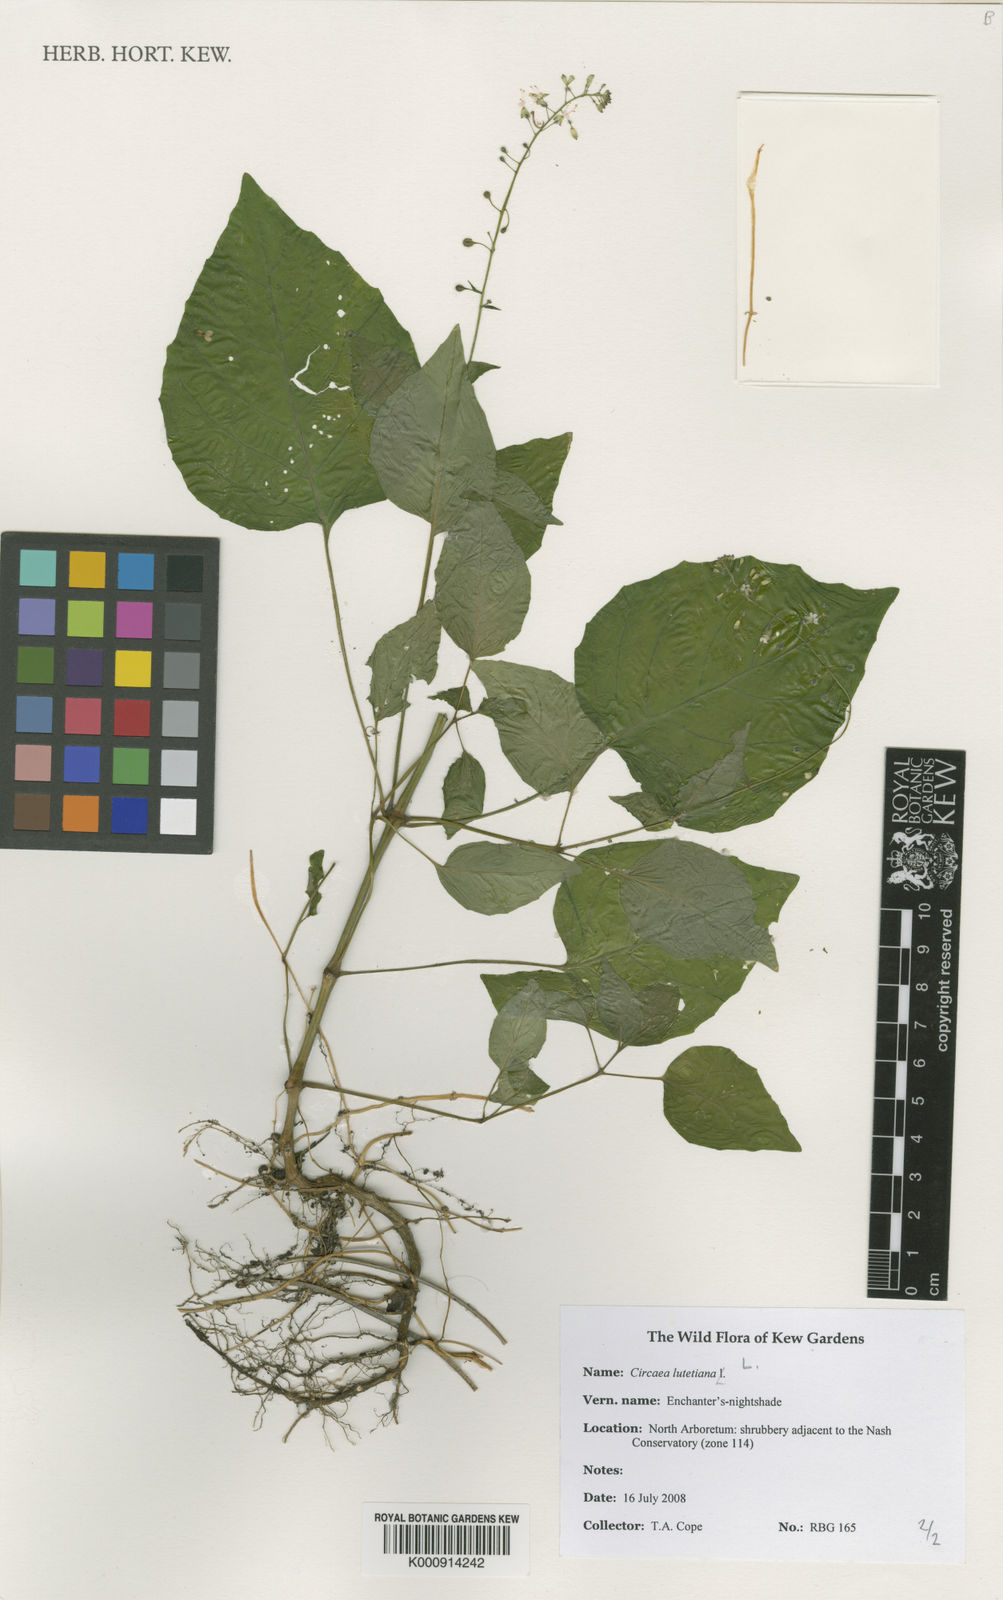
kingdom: Plantae
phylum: Tracheophyta
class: Magnoliopsida
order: Myrtales
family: Onagraceae
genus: Circaea
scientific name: Circaea lutetiana
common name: Enchanter's-nightshade
